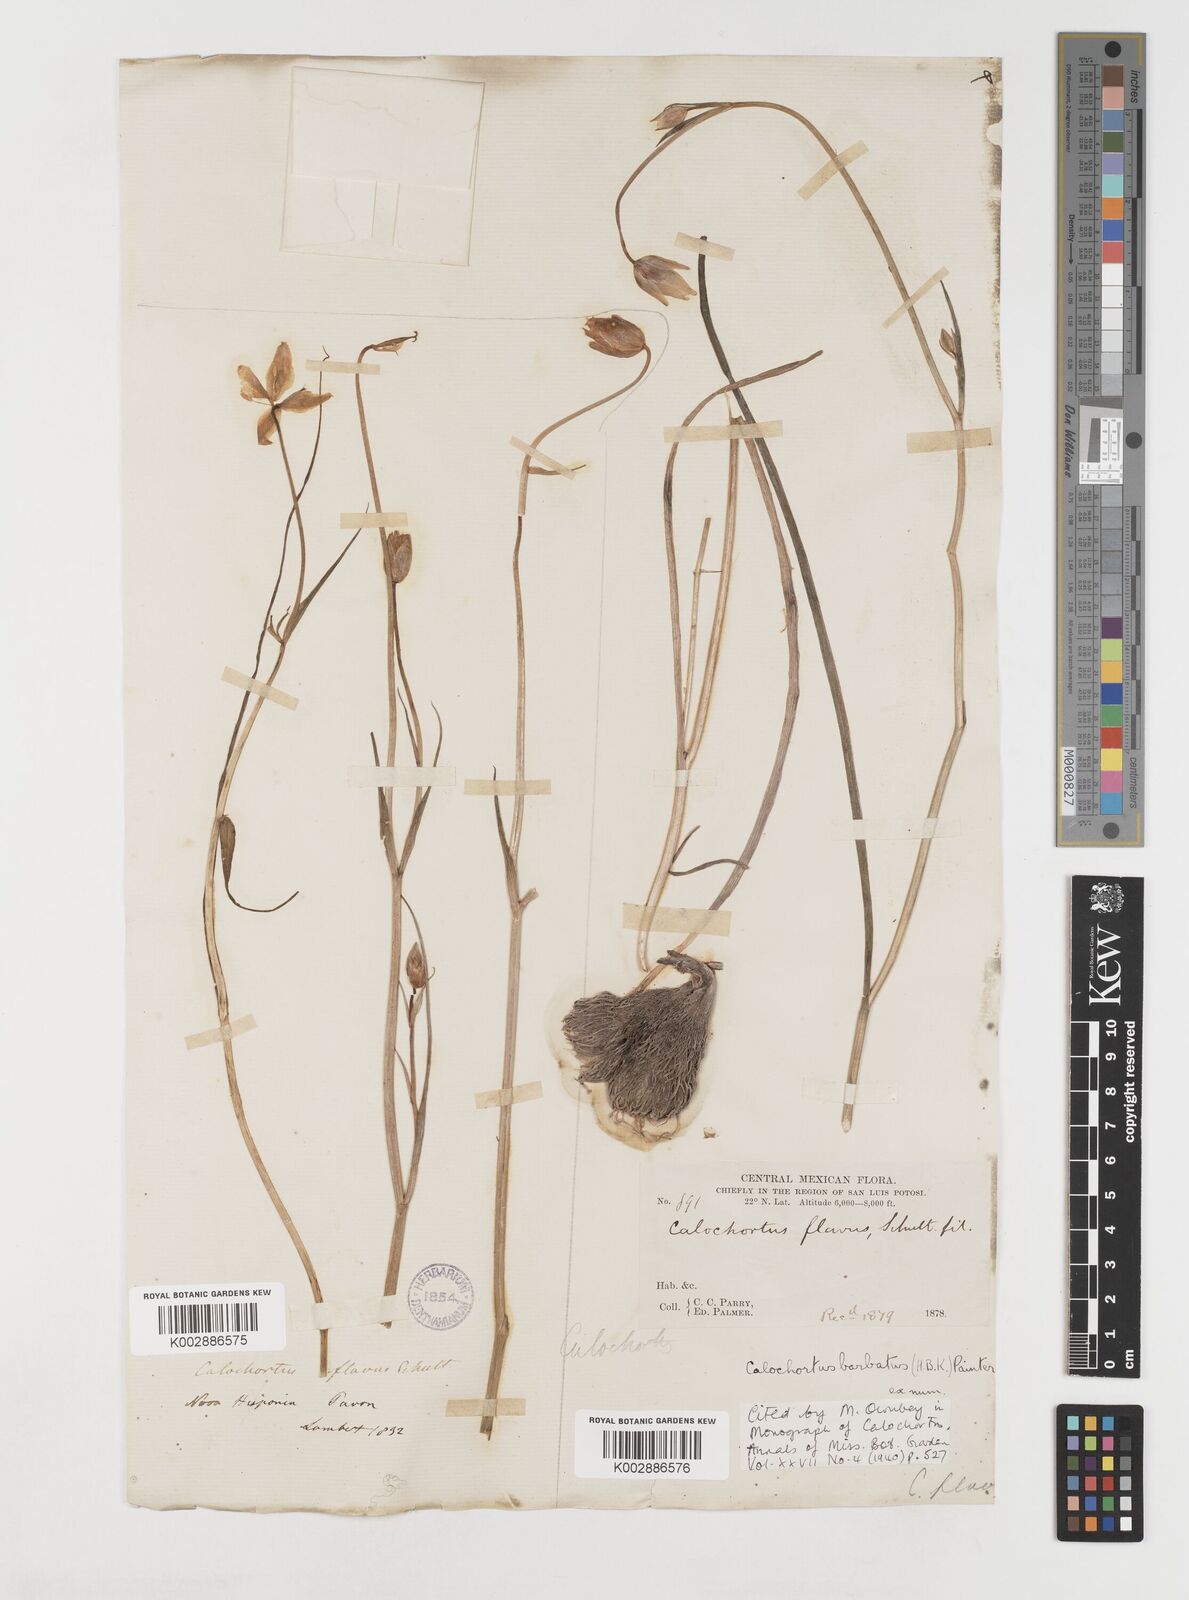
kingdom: Plantae
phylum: Tracheophyta
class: Liliopsida
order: Liliales
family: Liliaceae
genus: Calochortus
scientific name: Calochortus barbatus
